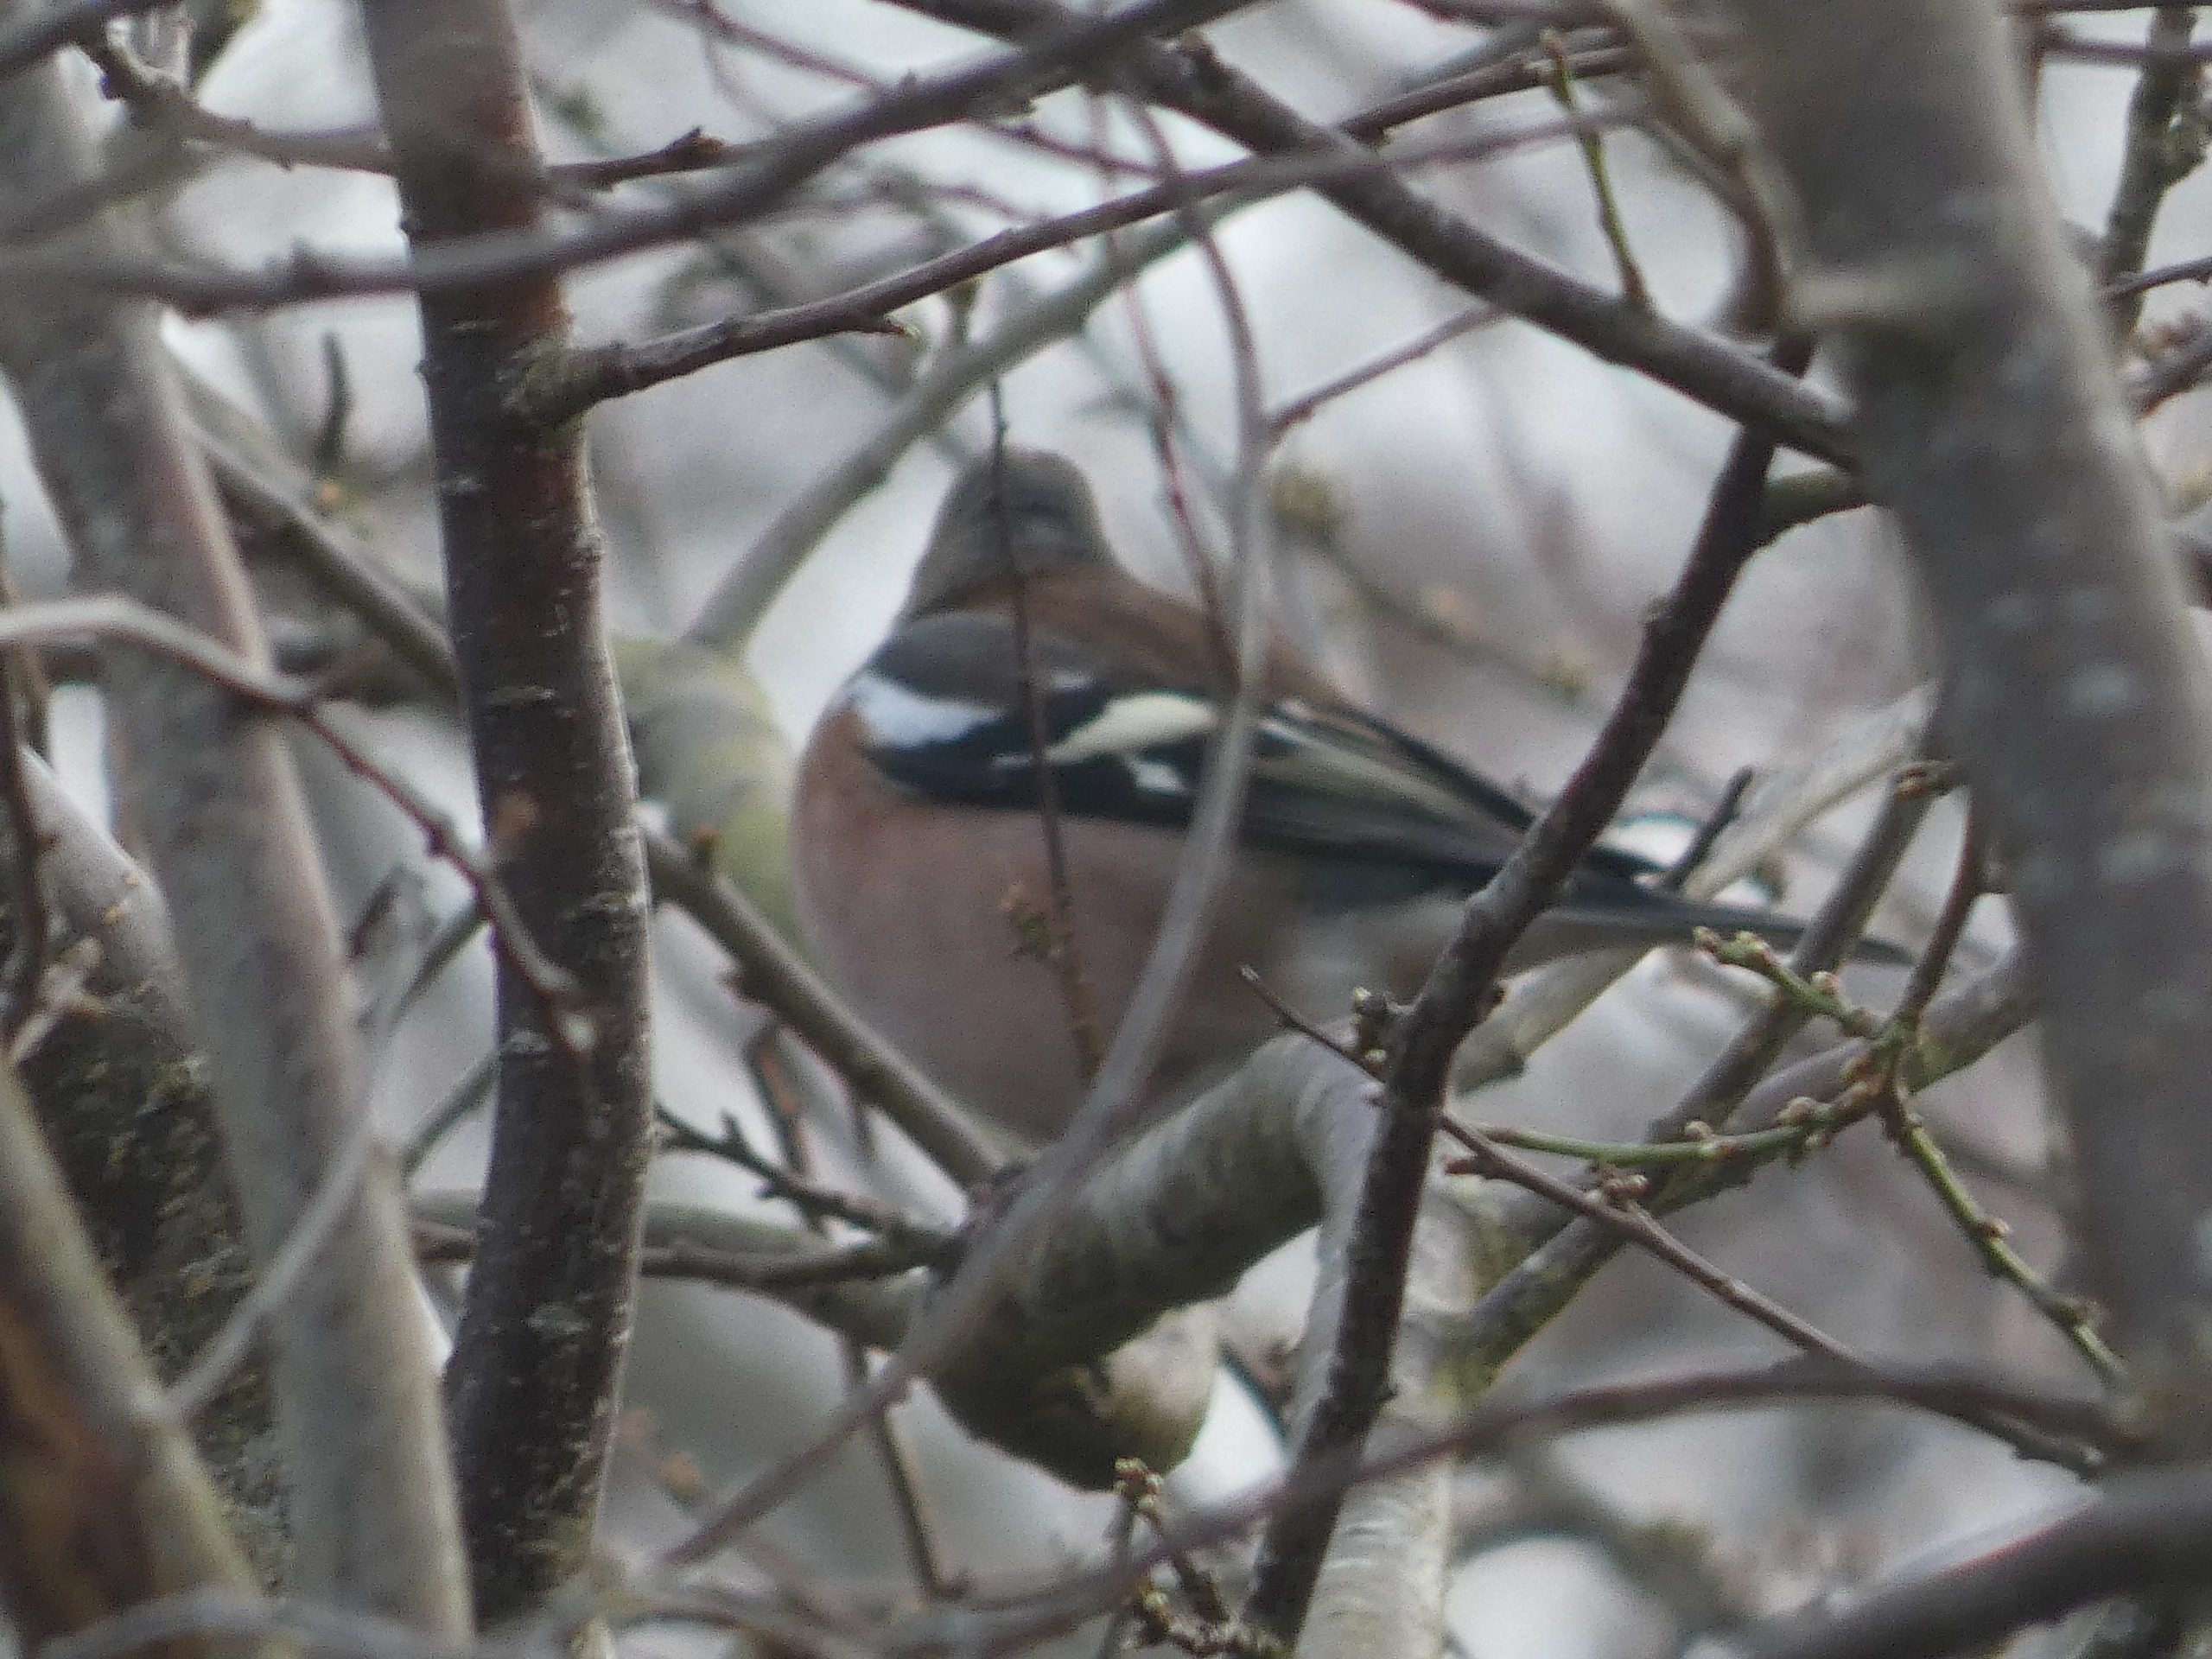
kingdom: Animalia
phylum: Chordata
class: Aves
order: Passeriformes
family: Fringillidae
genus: Fringilla
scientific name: Fringilla coelebs
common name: Bogfinke
